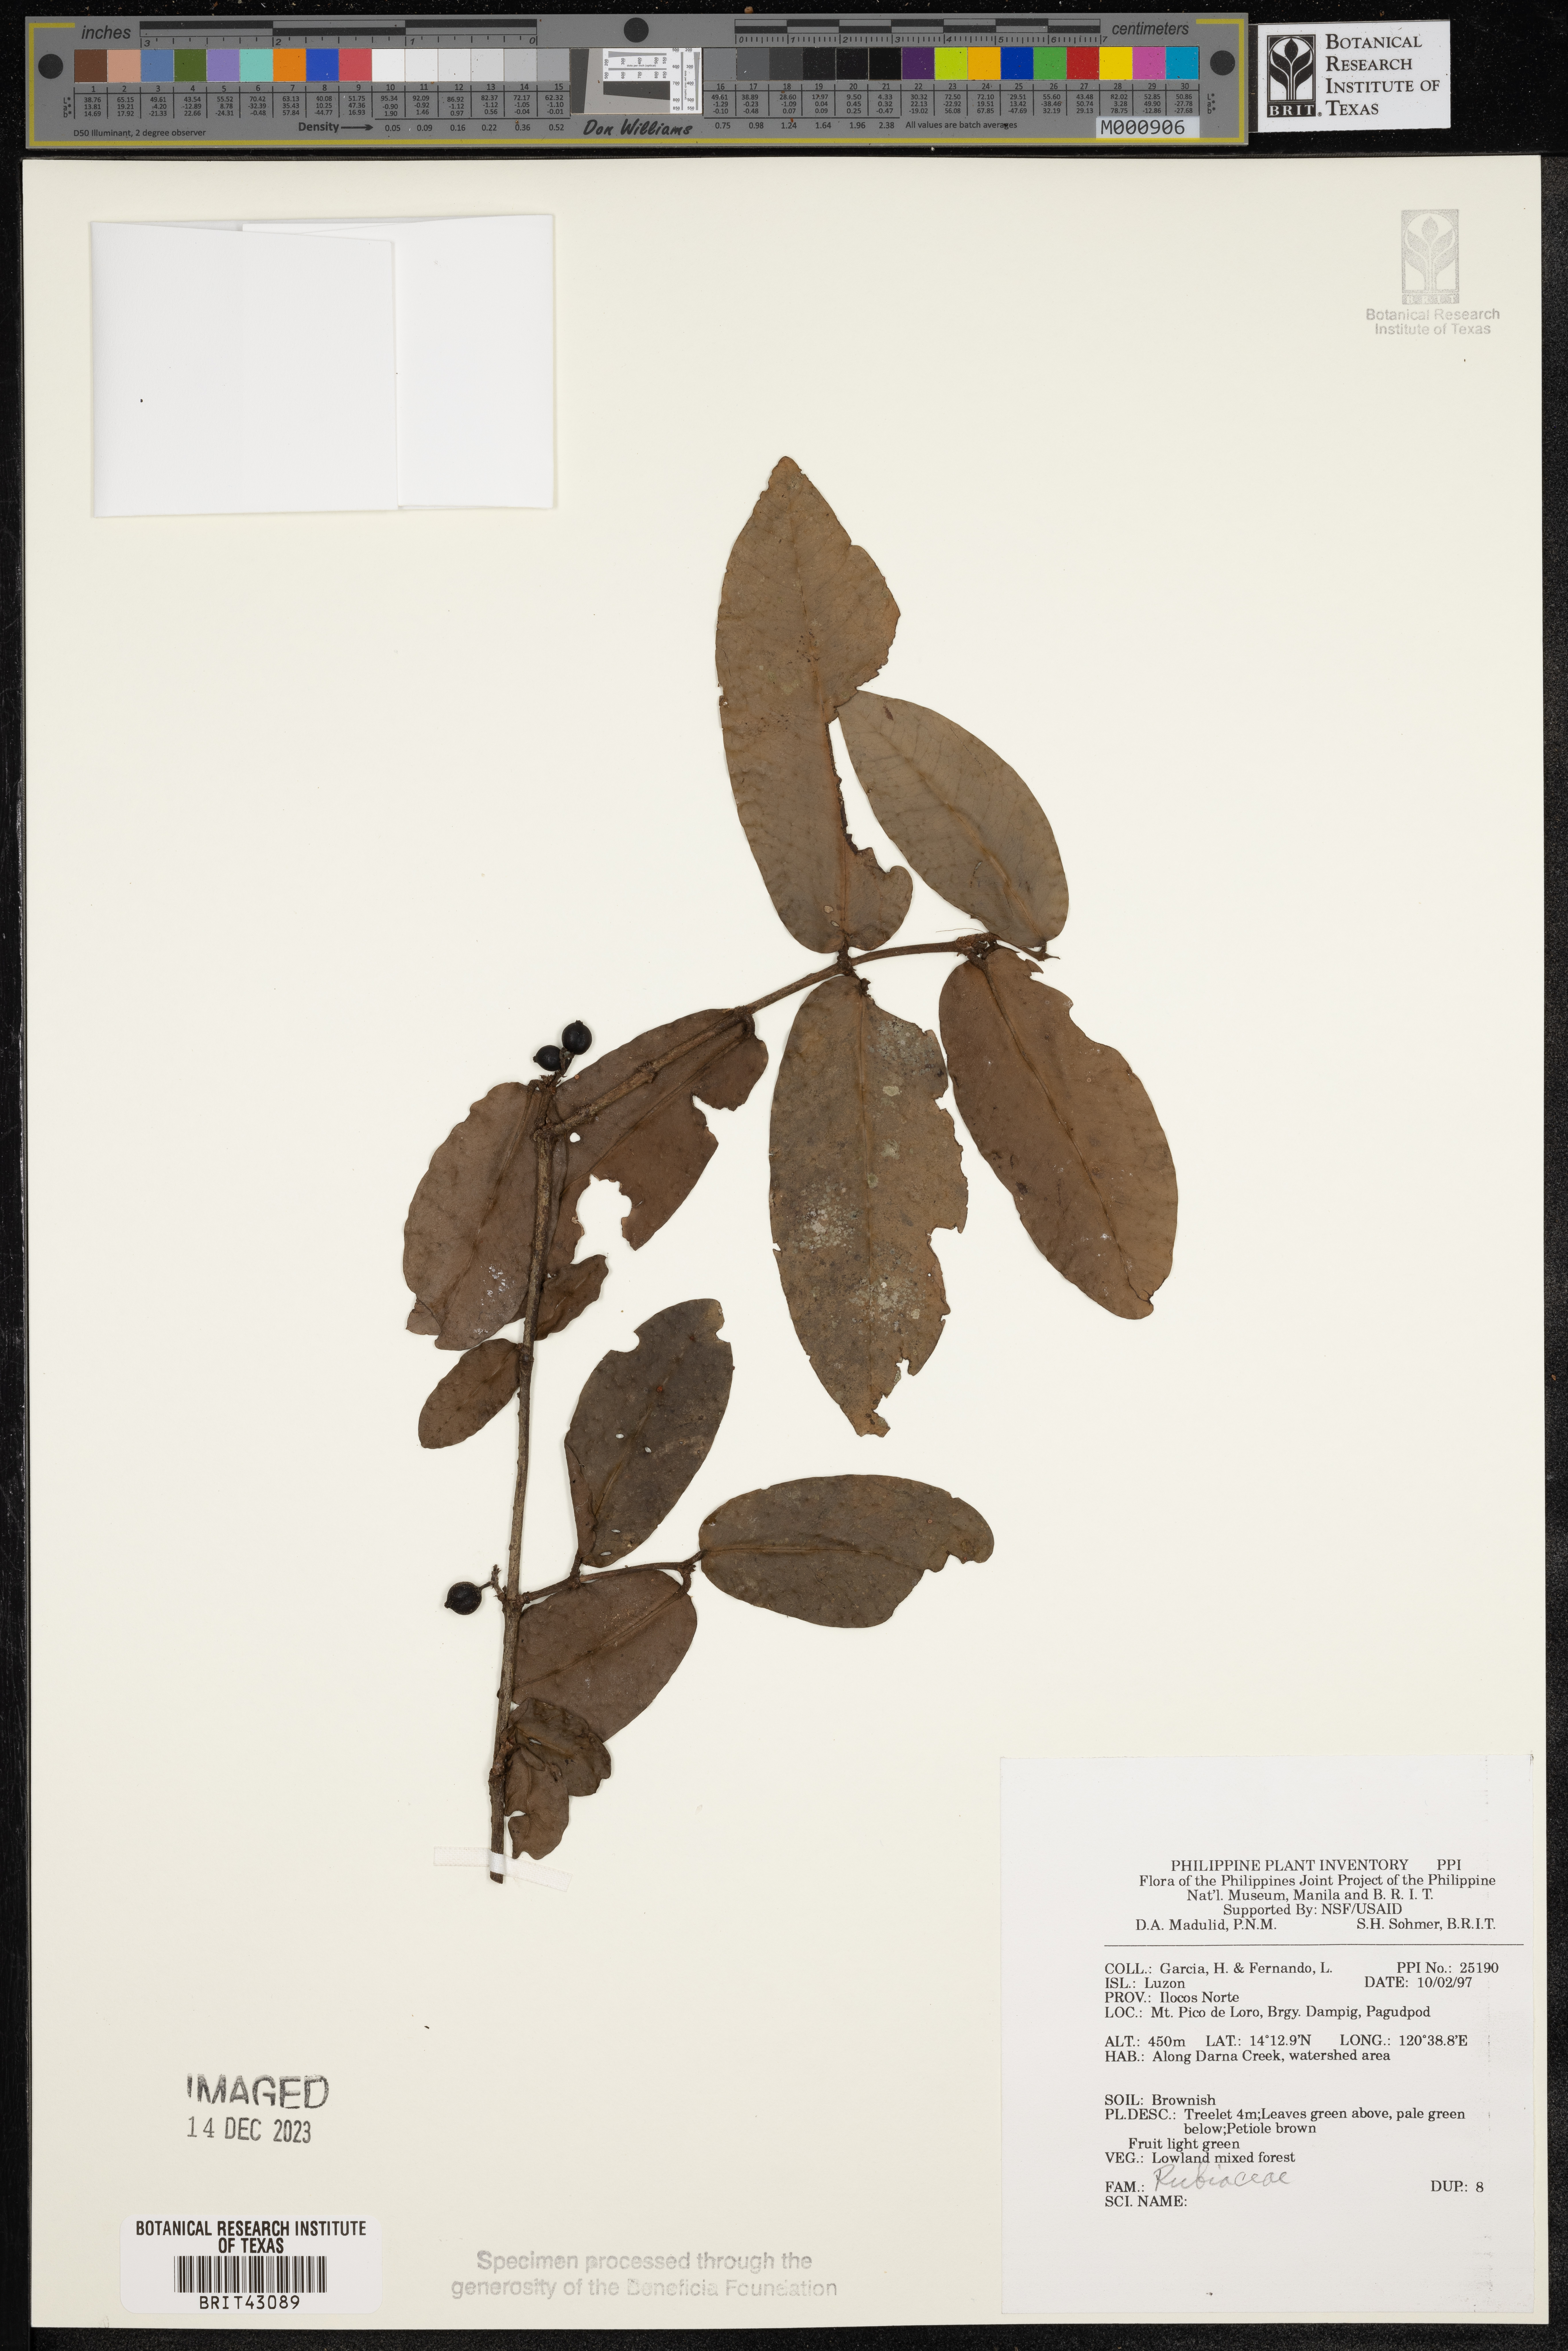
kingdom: Plantae
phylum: Tracheophyta
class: Magnoliopsida
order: Gentianales
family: Rubiaceae
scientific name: Rubiaceae
